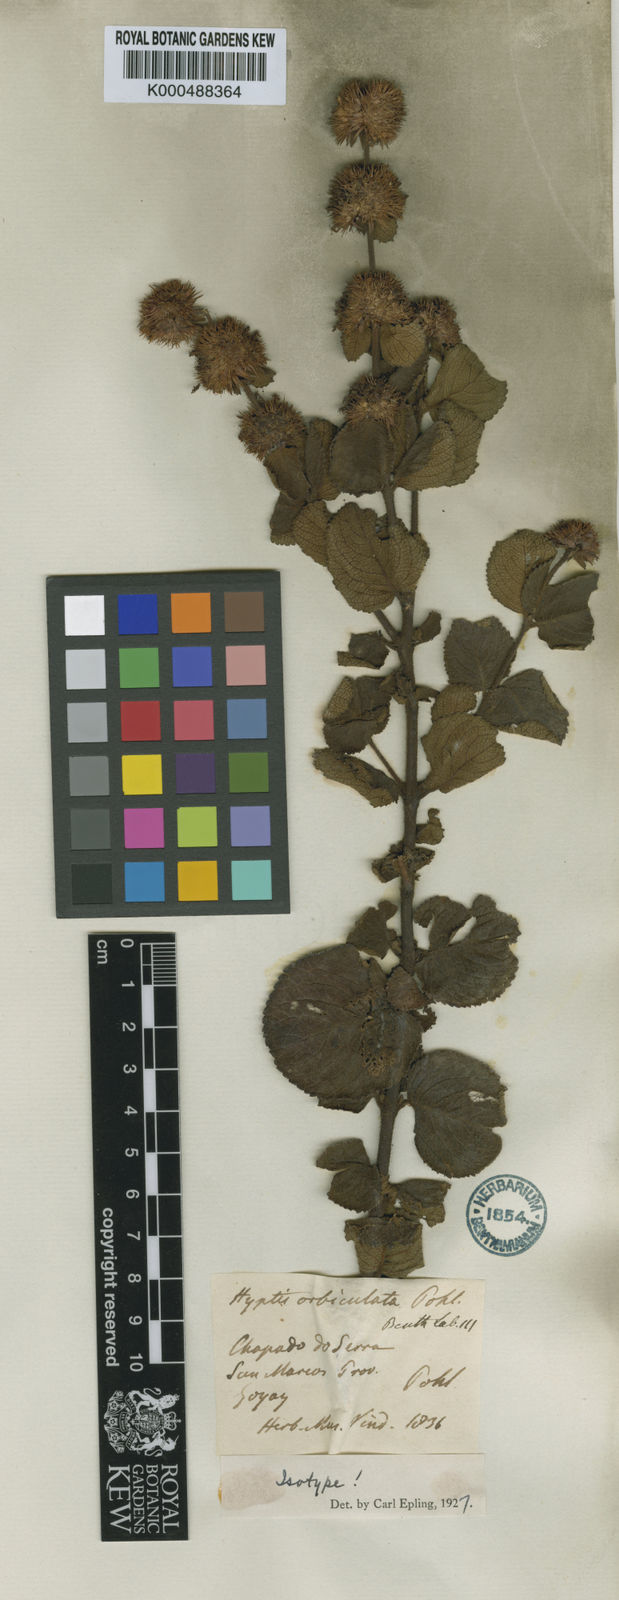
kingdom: Plantae
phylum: Tracheophyta
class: Magnoliopsida
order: Lamiales
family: Lamiaceae
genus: Hyptis
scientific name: Hyptis orbiculata
